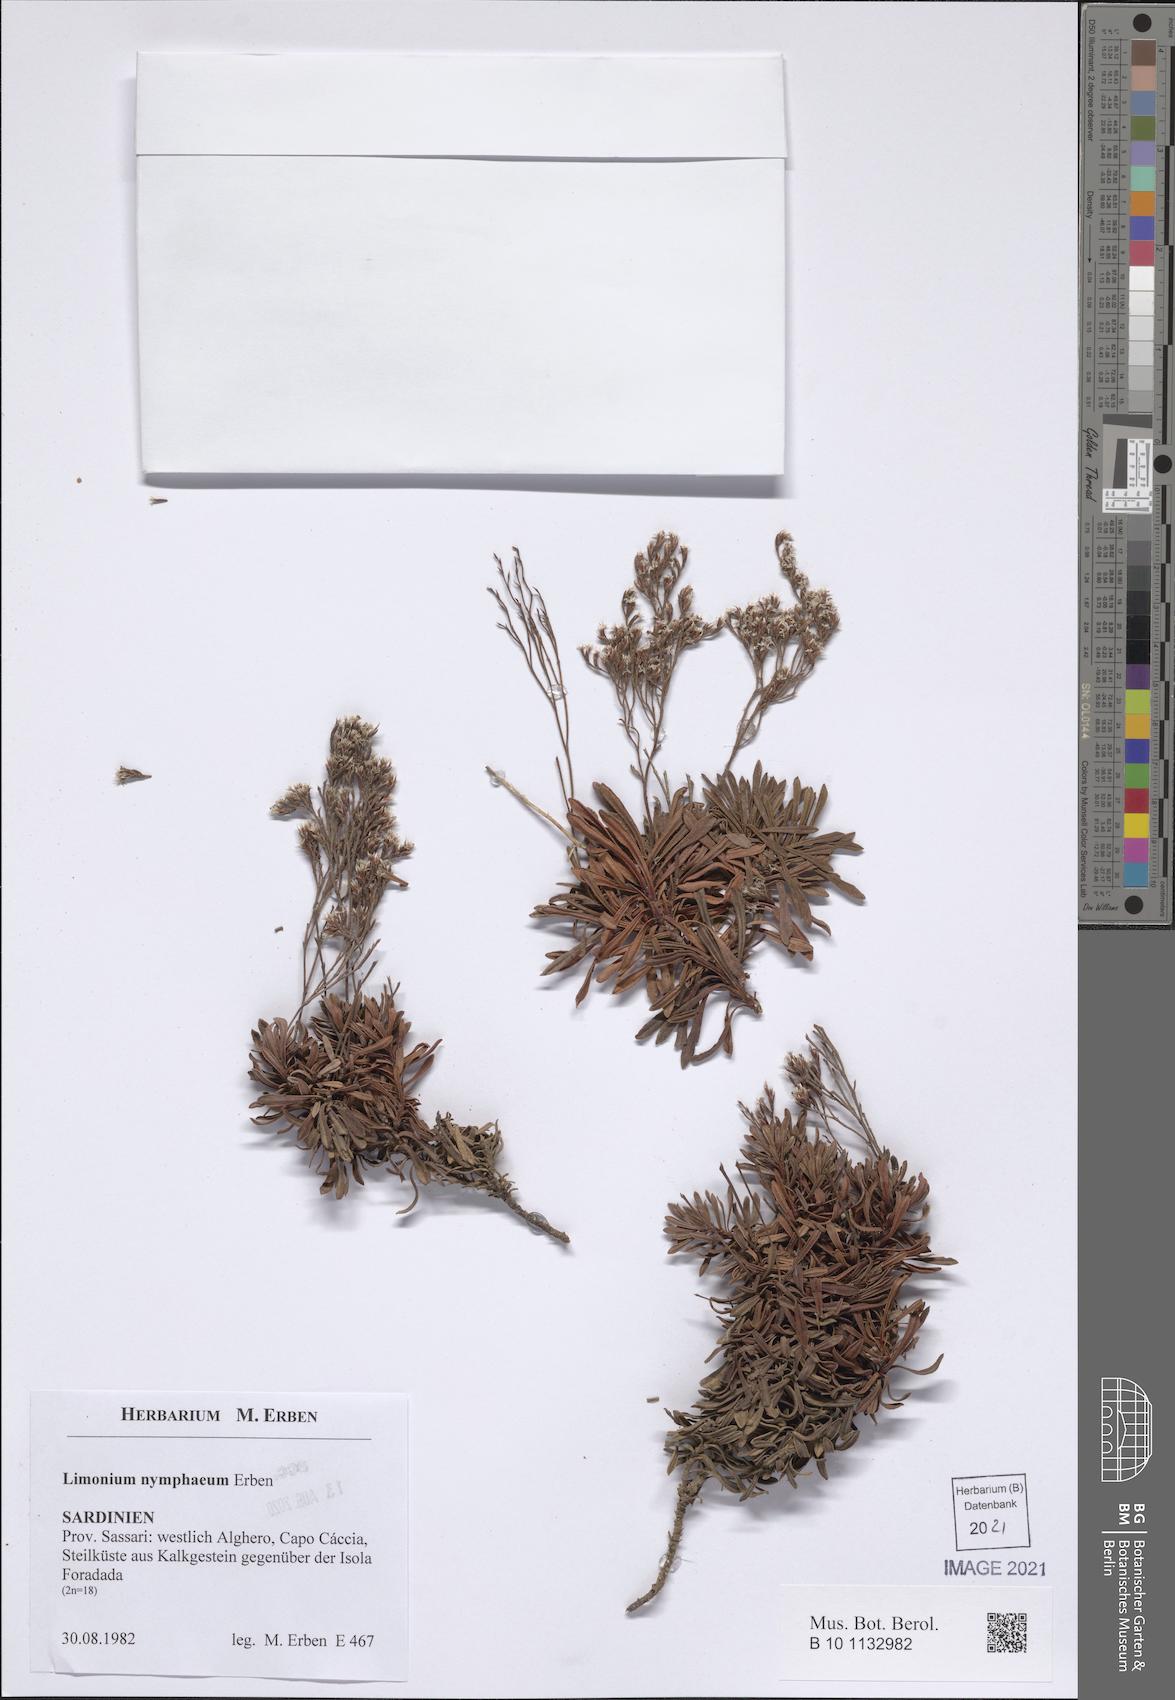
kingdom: Plantae
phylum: Tracheophyta
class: Magnoliopsida
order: Caryophyllales
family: Plumbaginaceae
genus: Limonium
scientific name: Limonium acutifolium
